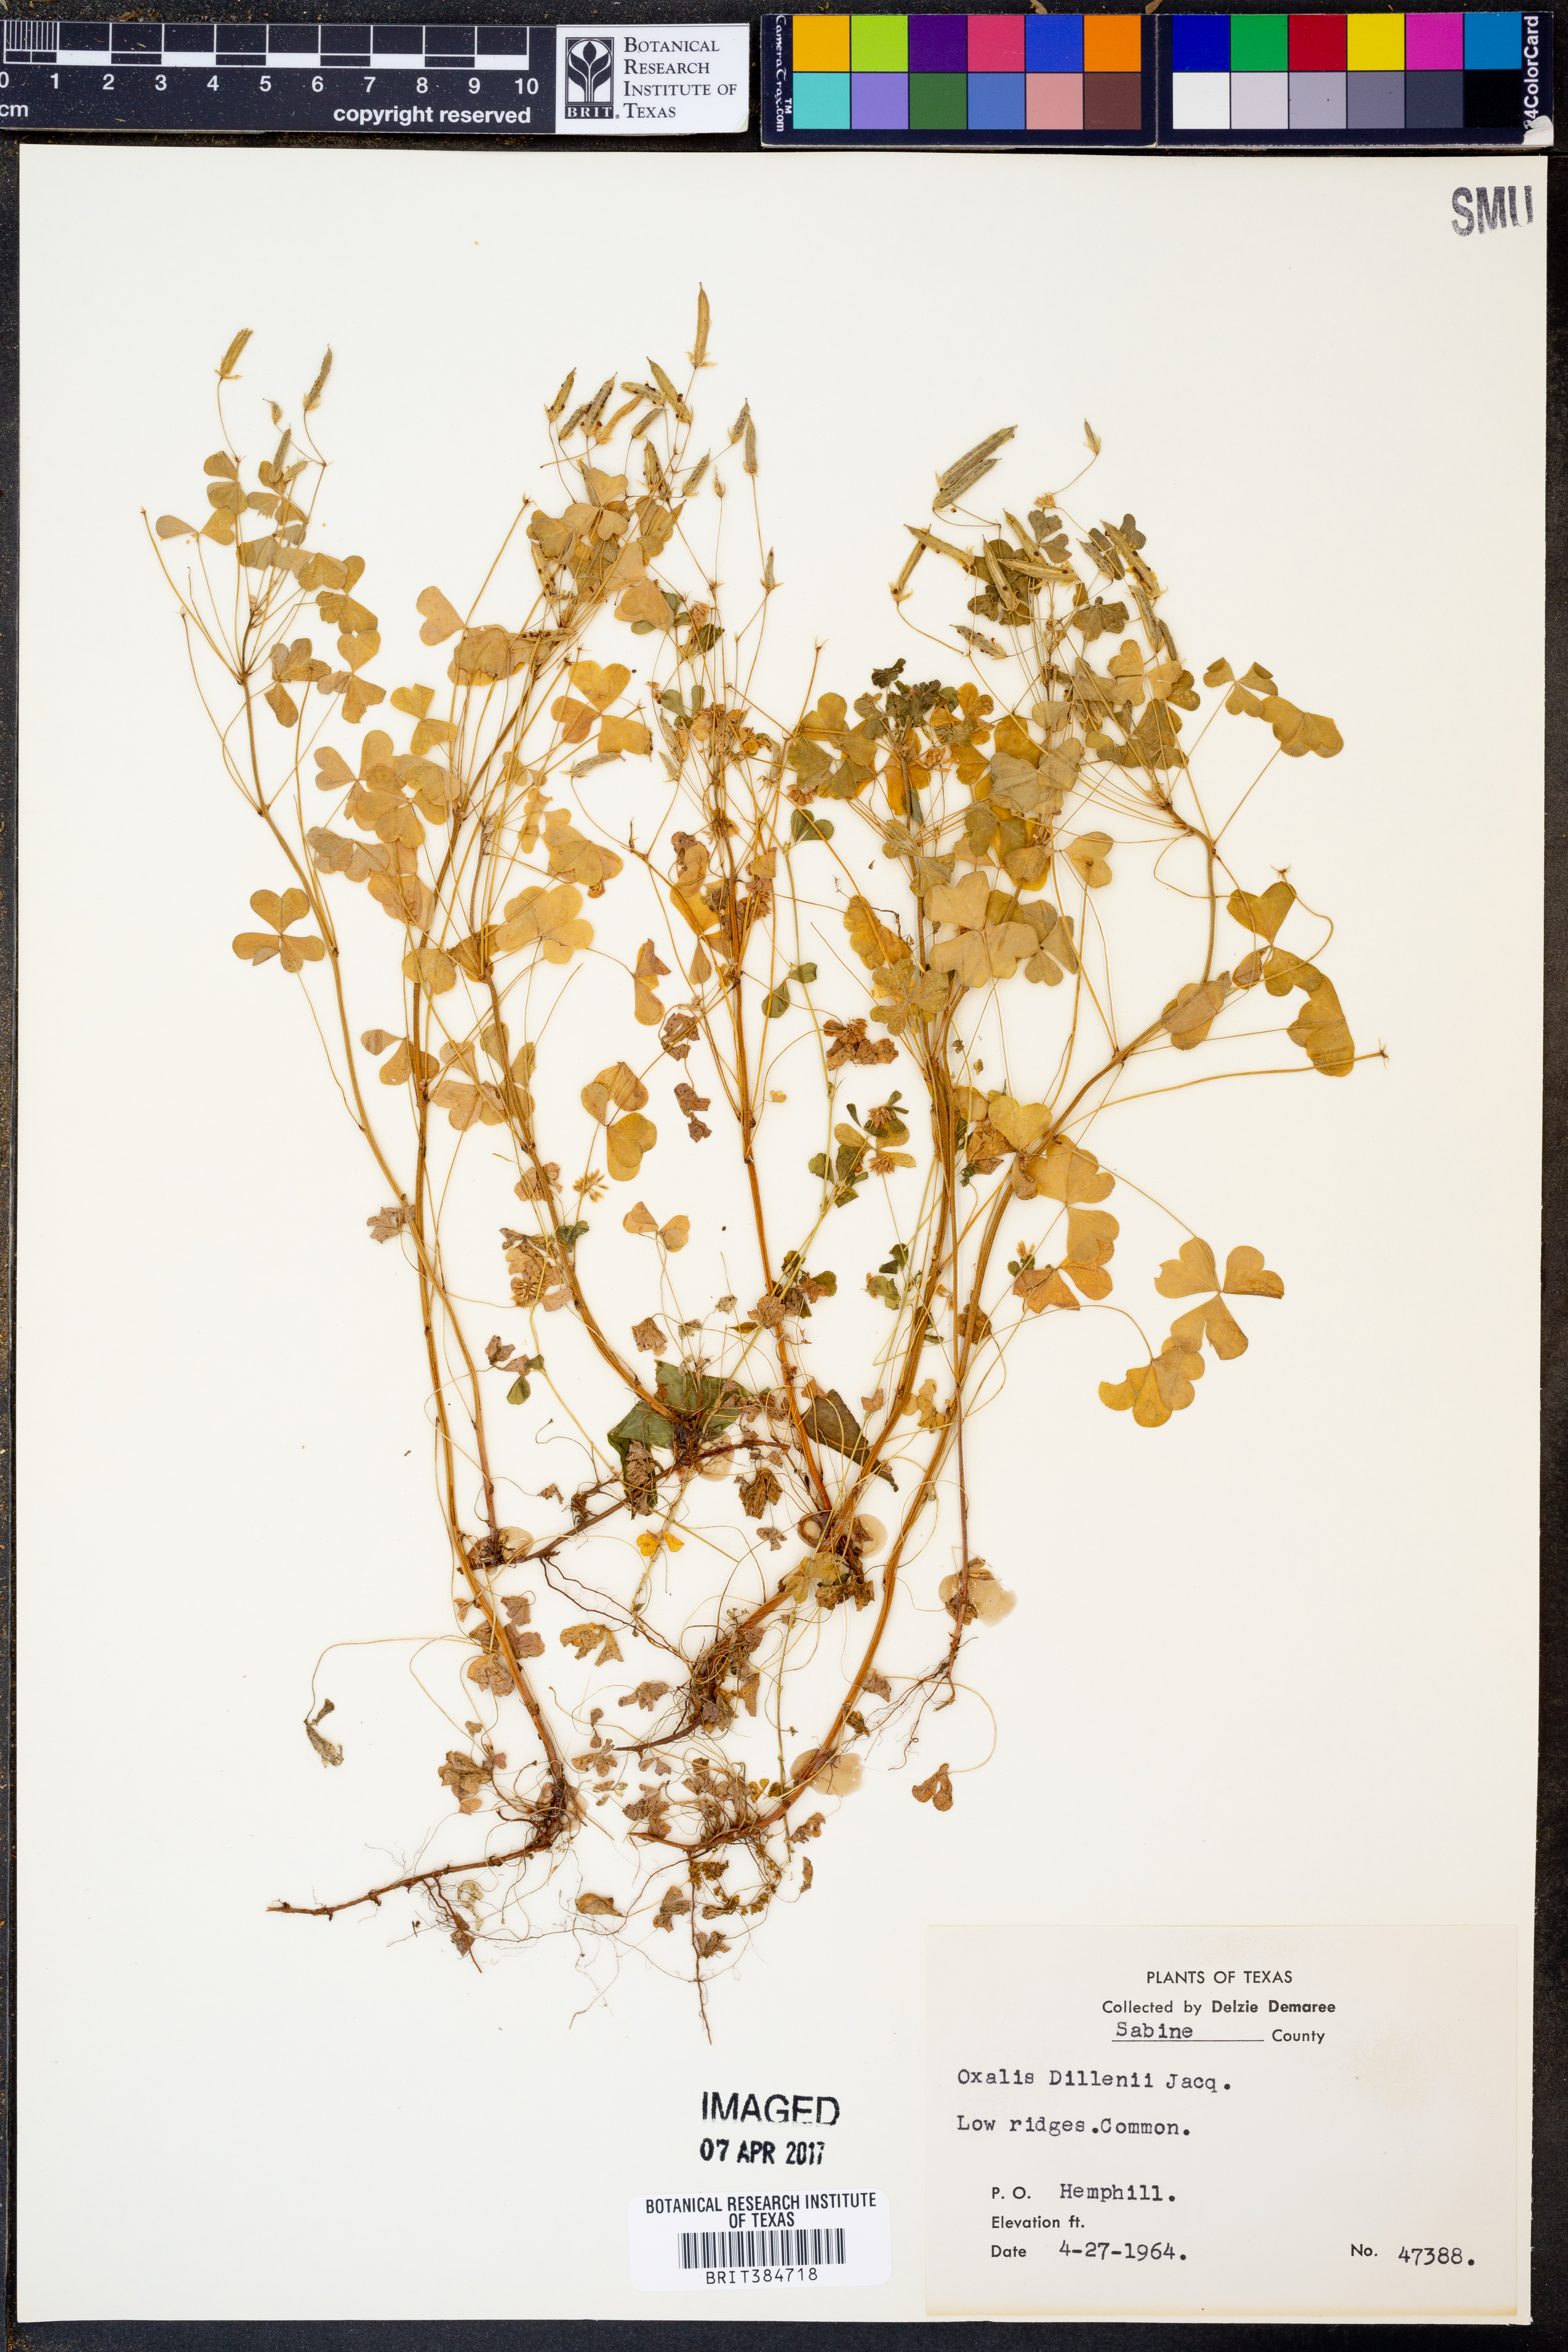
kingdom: Plantae
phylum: Tracheophyta
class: Magnoliopsida
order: Oxalidales
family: Oxalidaceae
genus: Oxalis
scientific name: Oxalis dillenii
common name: Sussex yellow-sorrel
